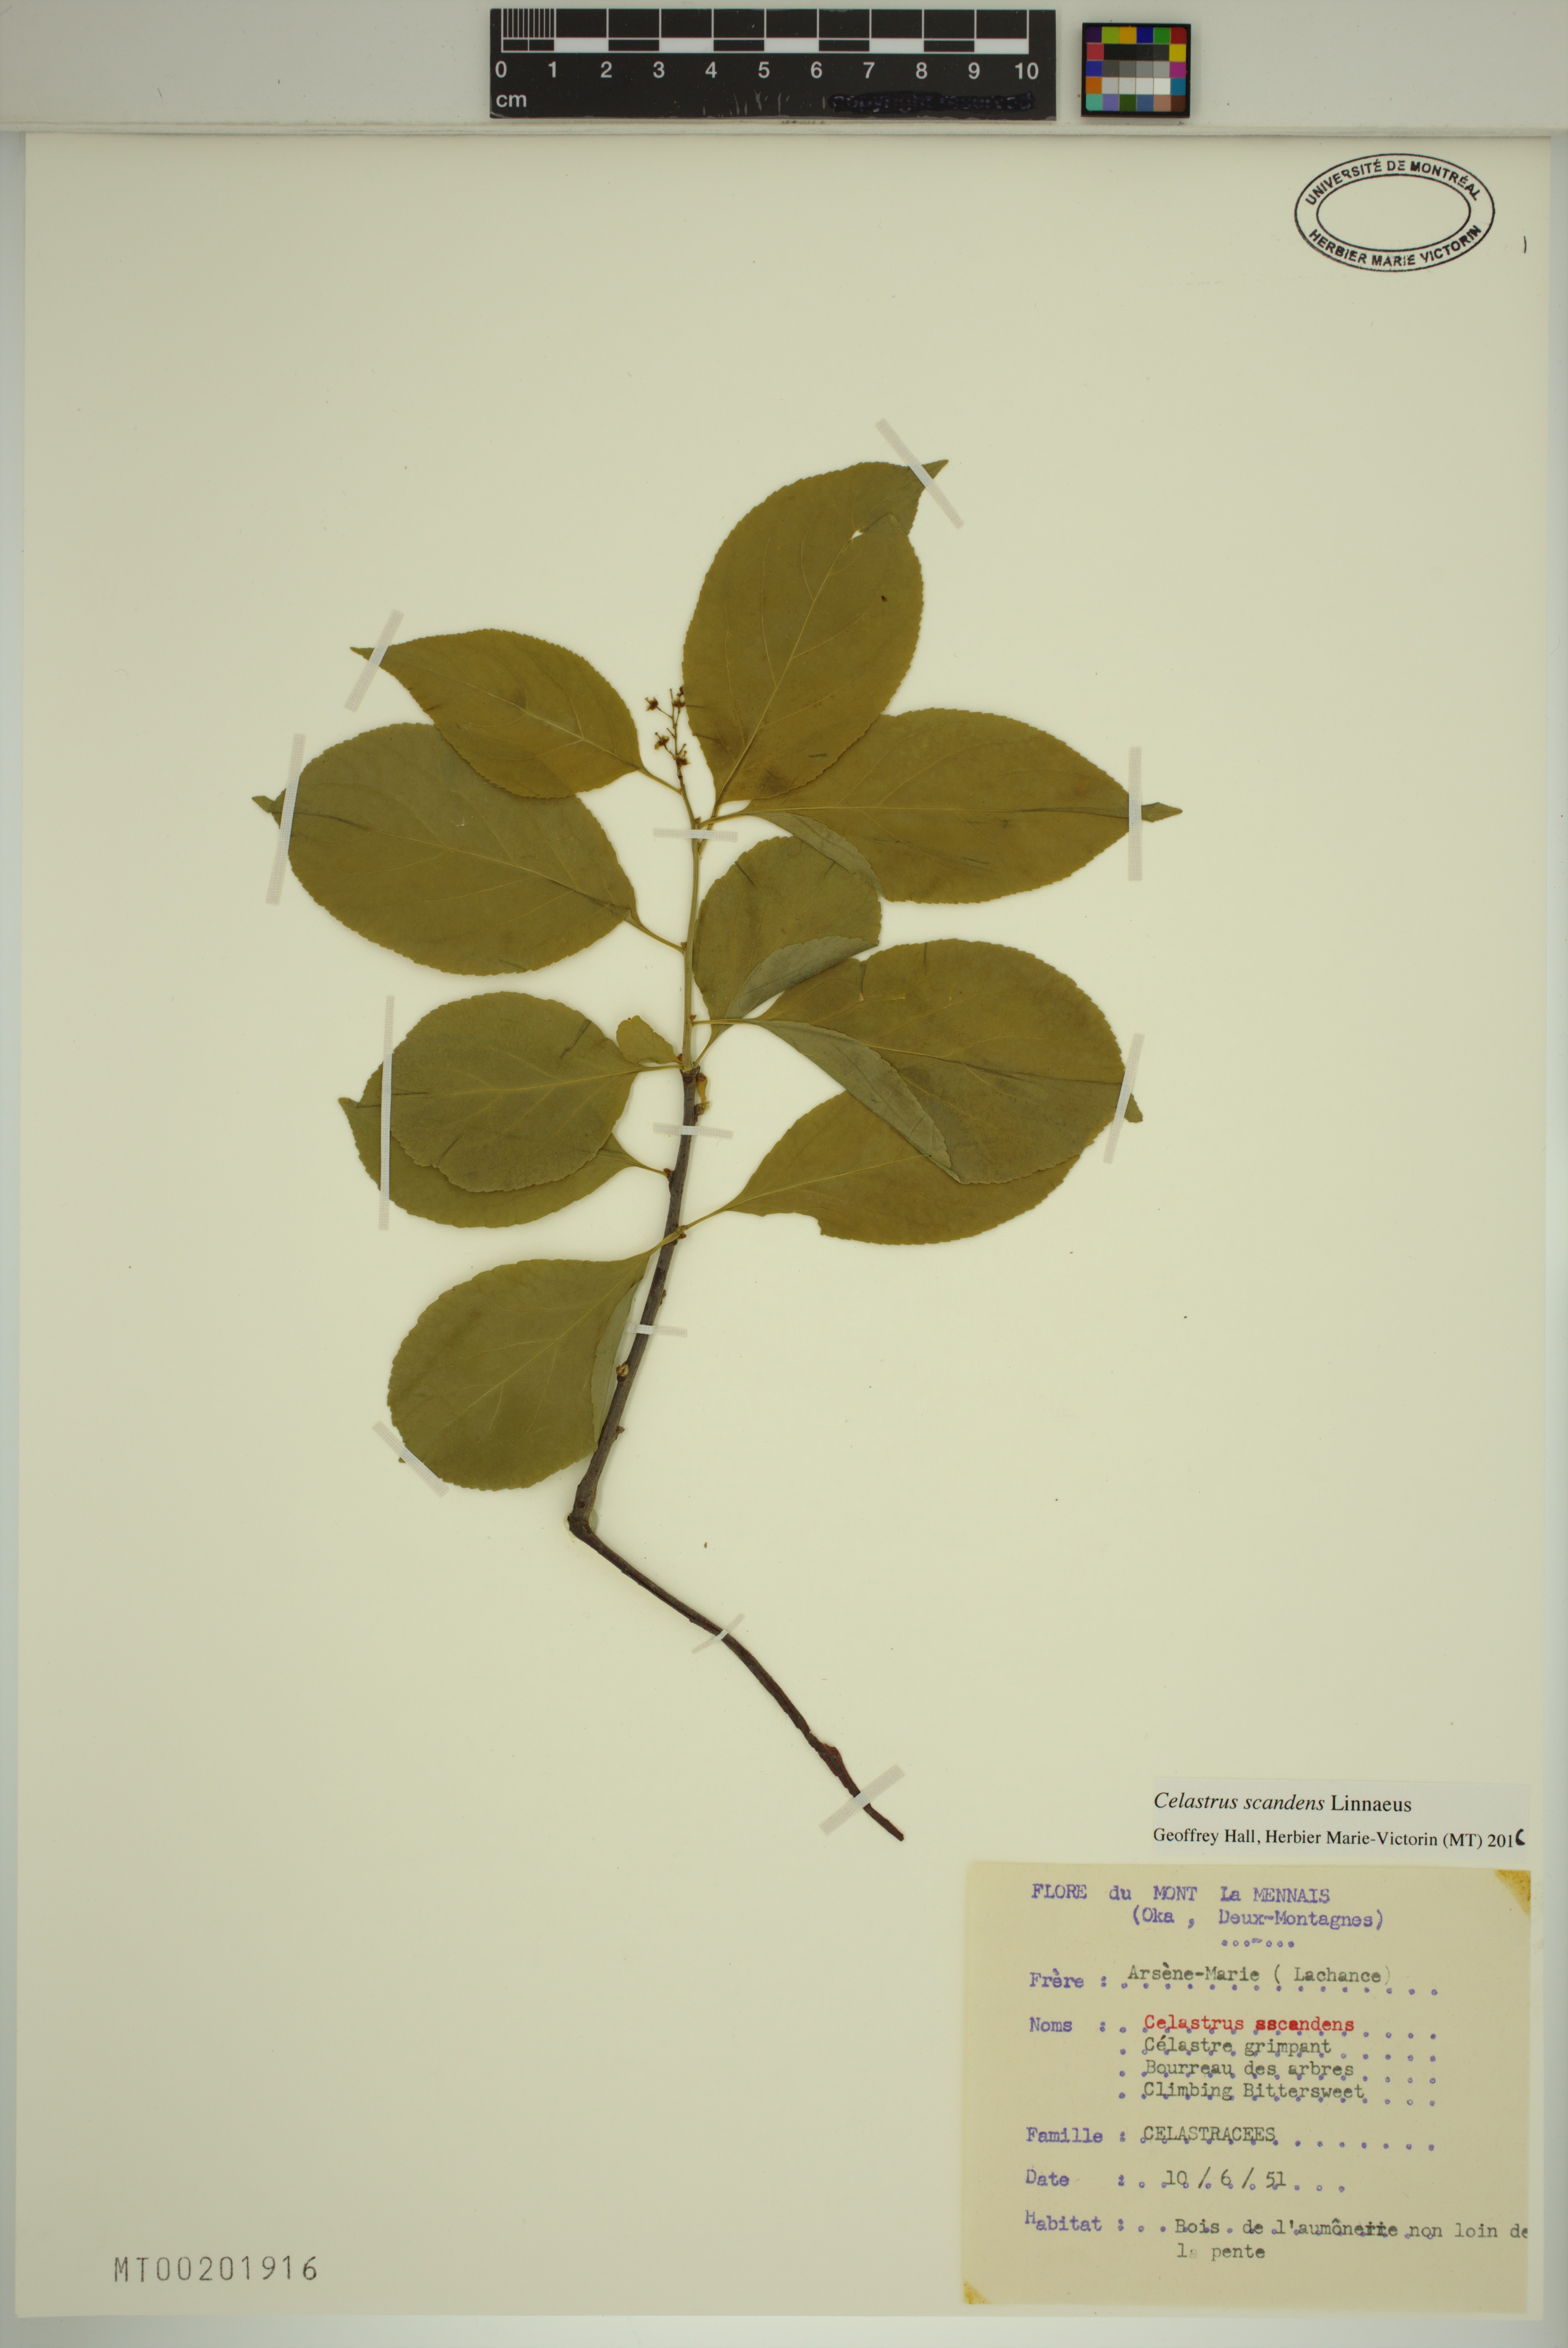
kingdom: Plantae
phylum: Tracheophyta
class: Magnoliopsida
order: Celastrales
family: Celastraceae
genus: Celastrus
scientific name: Celastrus scandens
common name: American bittersweet
